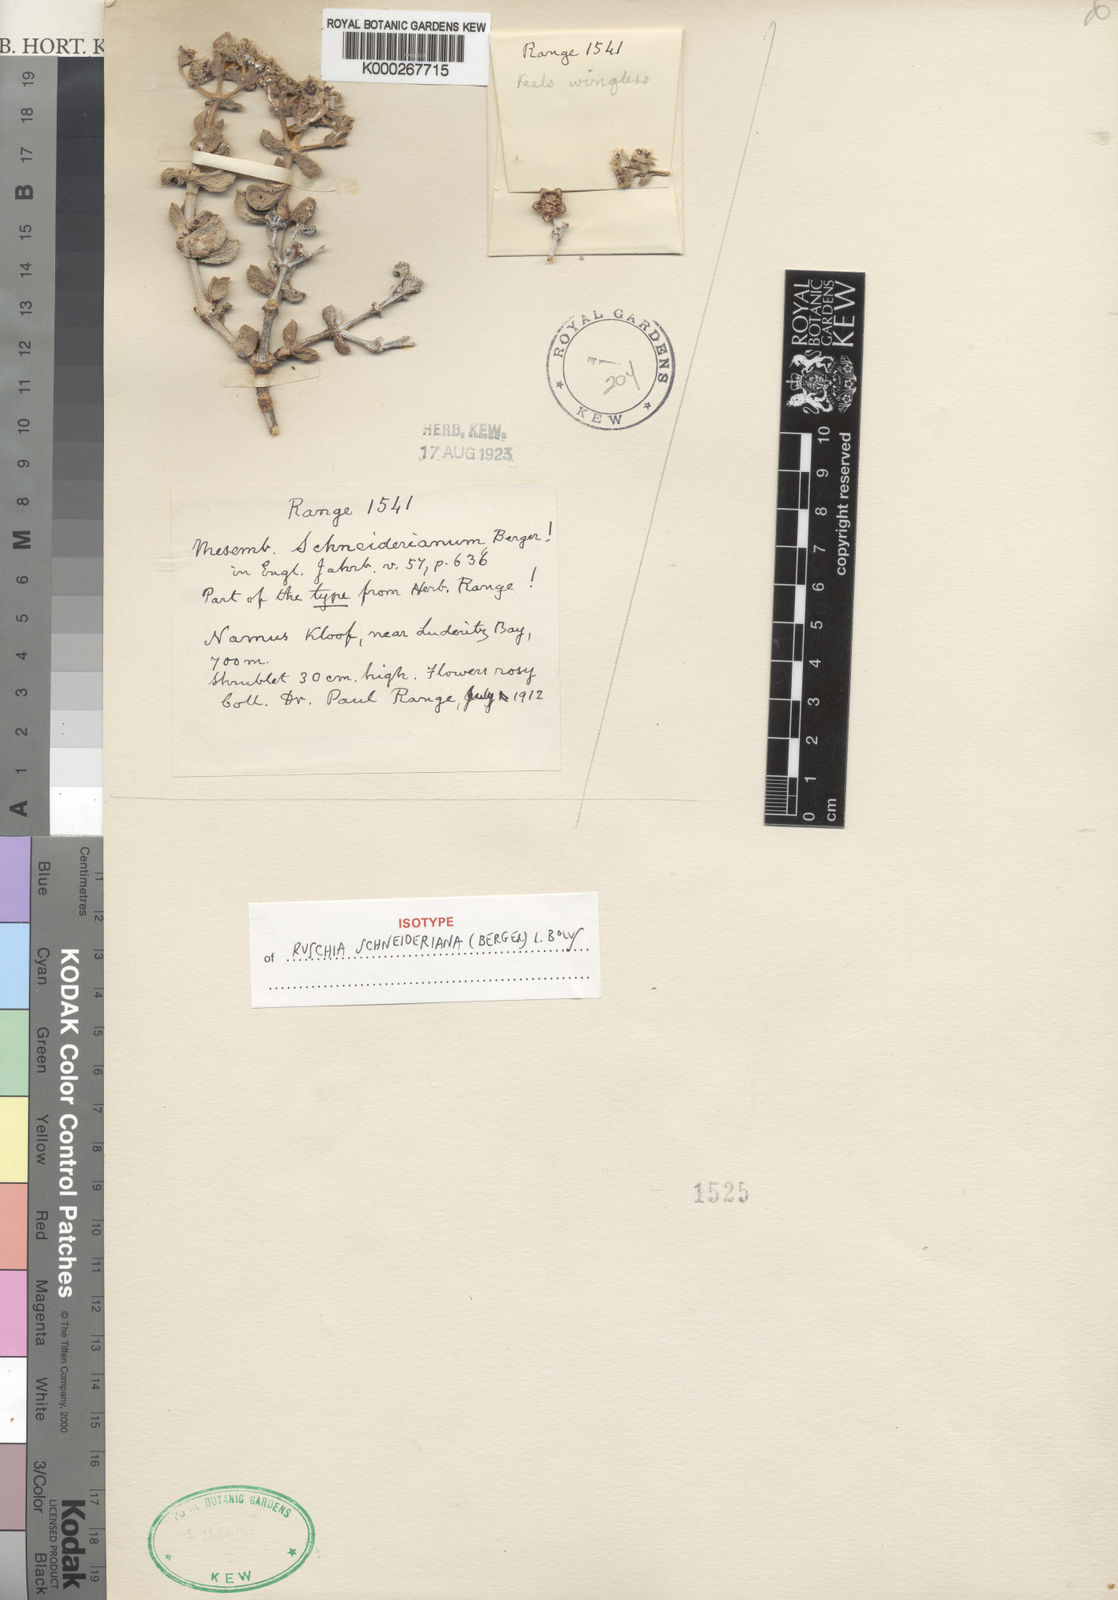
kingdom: Plantae
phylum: Tracheophyta
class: Magnoliopsida
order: Caryophyllales
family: Aizoaceae
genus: Eberlanzia
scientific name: Eberlanzia schneideriana
